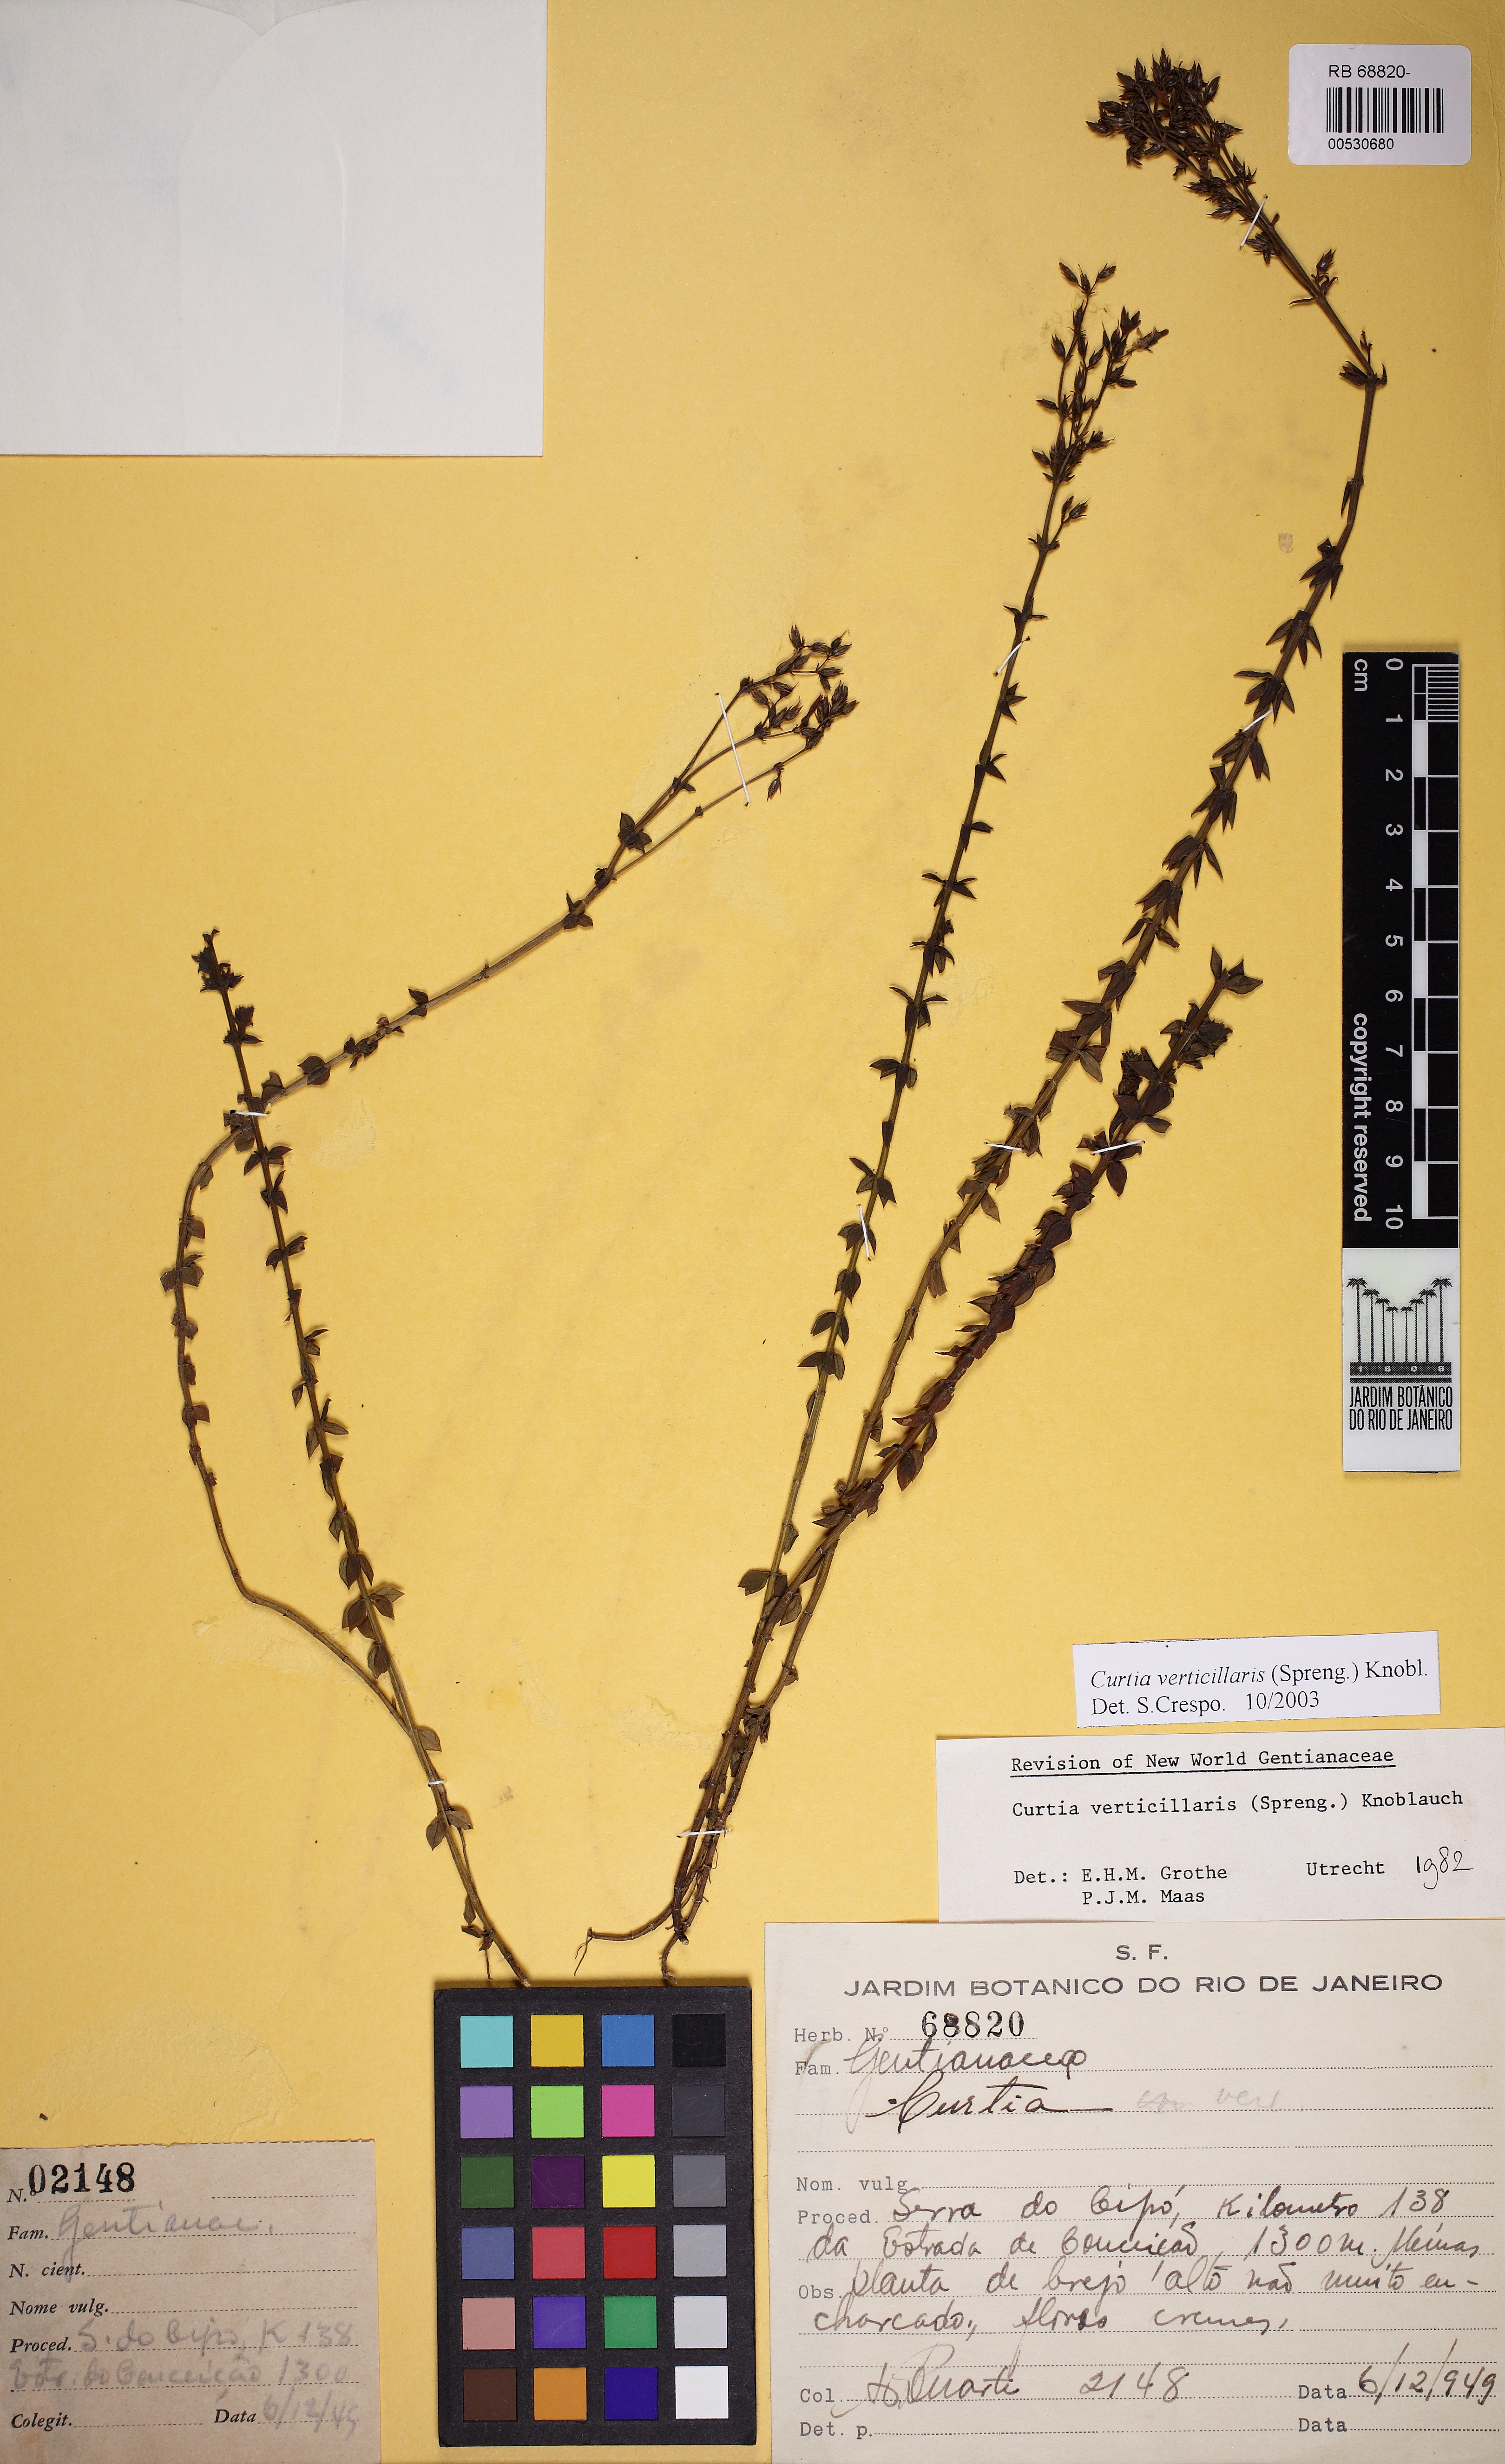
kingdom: Plantae
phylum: Tracheophyta
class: Magnoliopsida
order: Gentianales
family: Gentianaceae
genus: Curtia
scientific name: Curtia verticillaris
